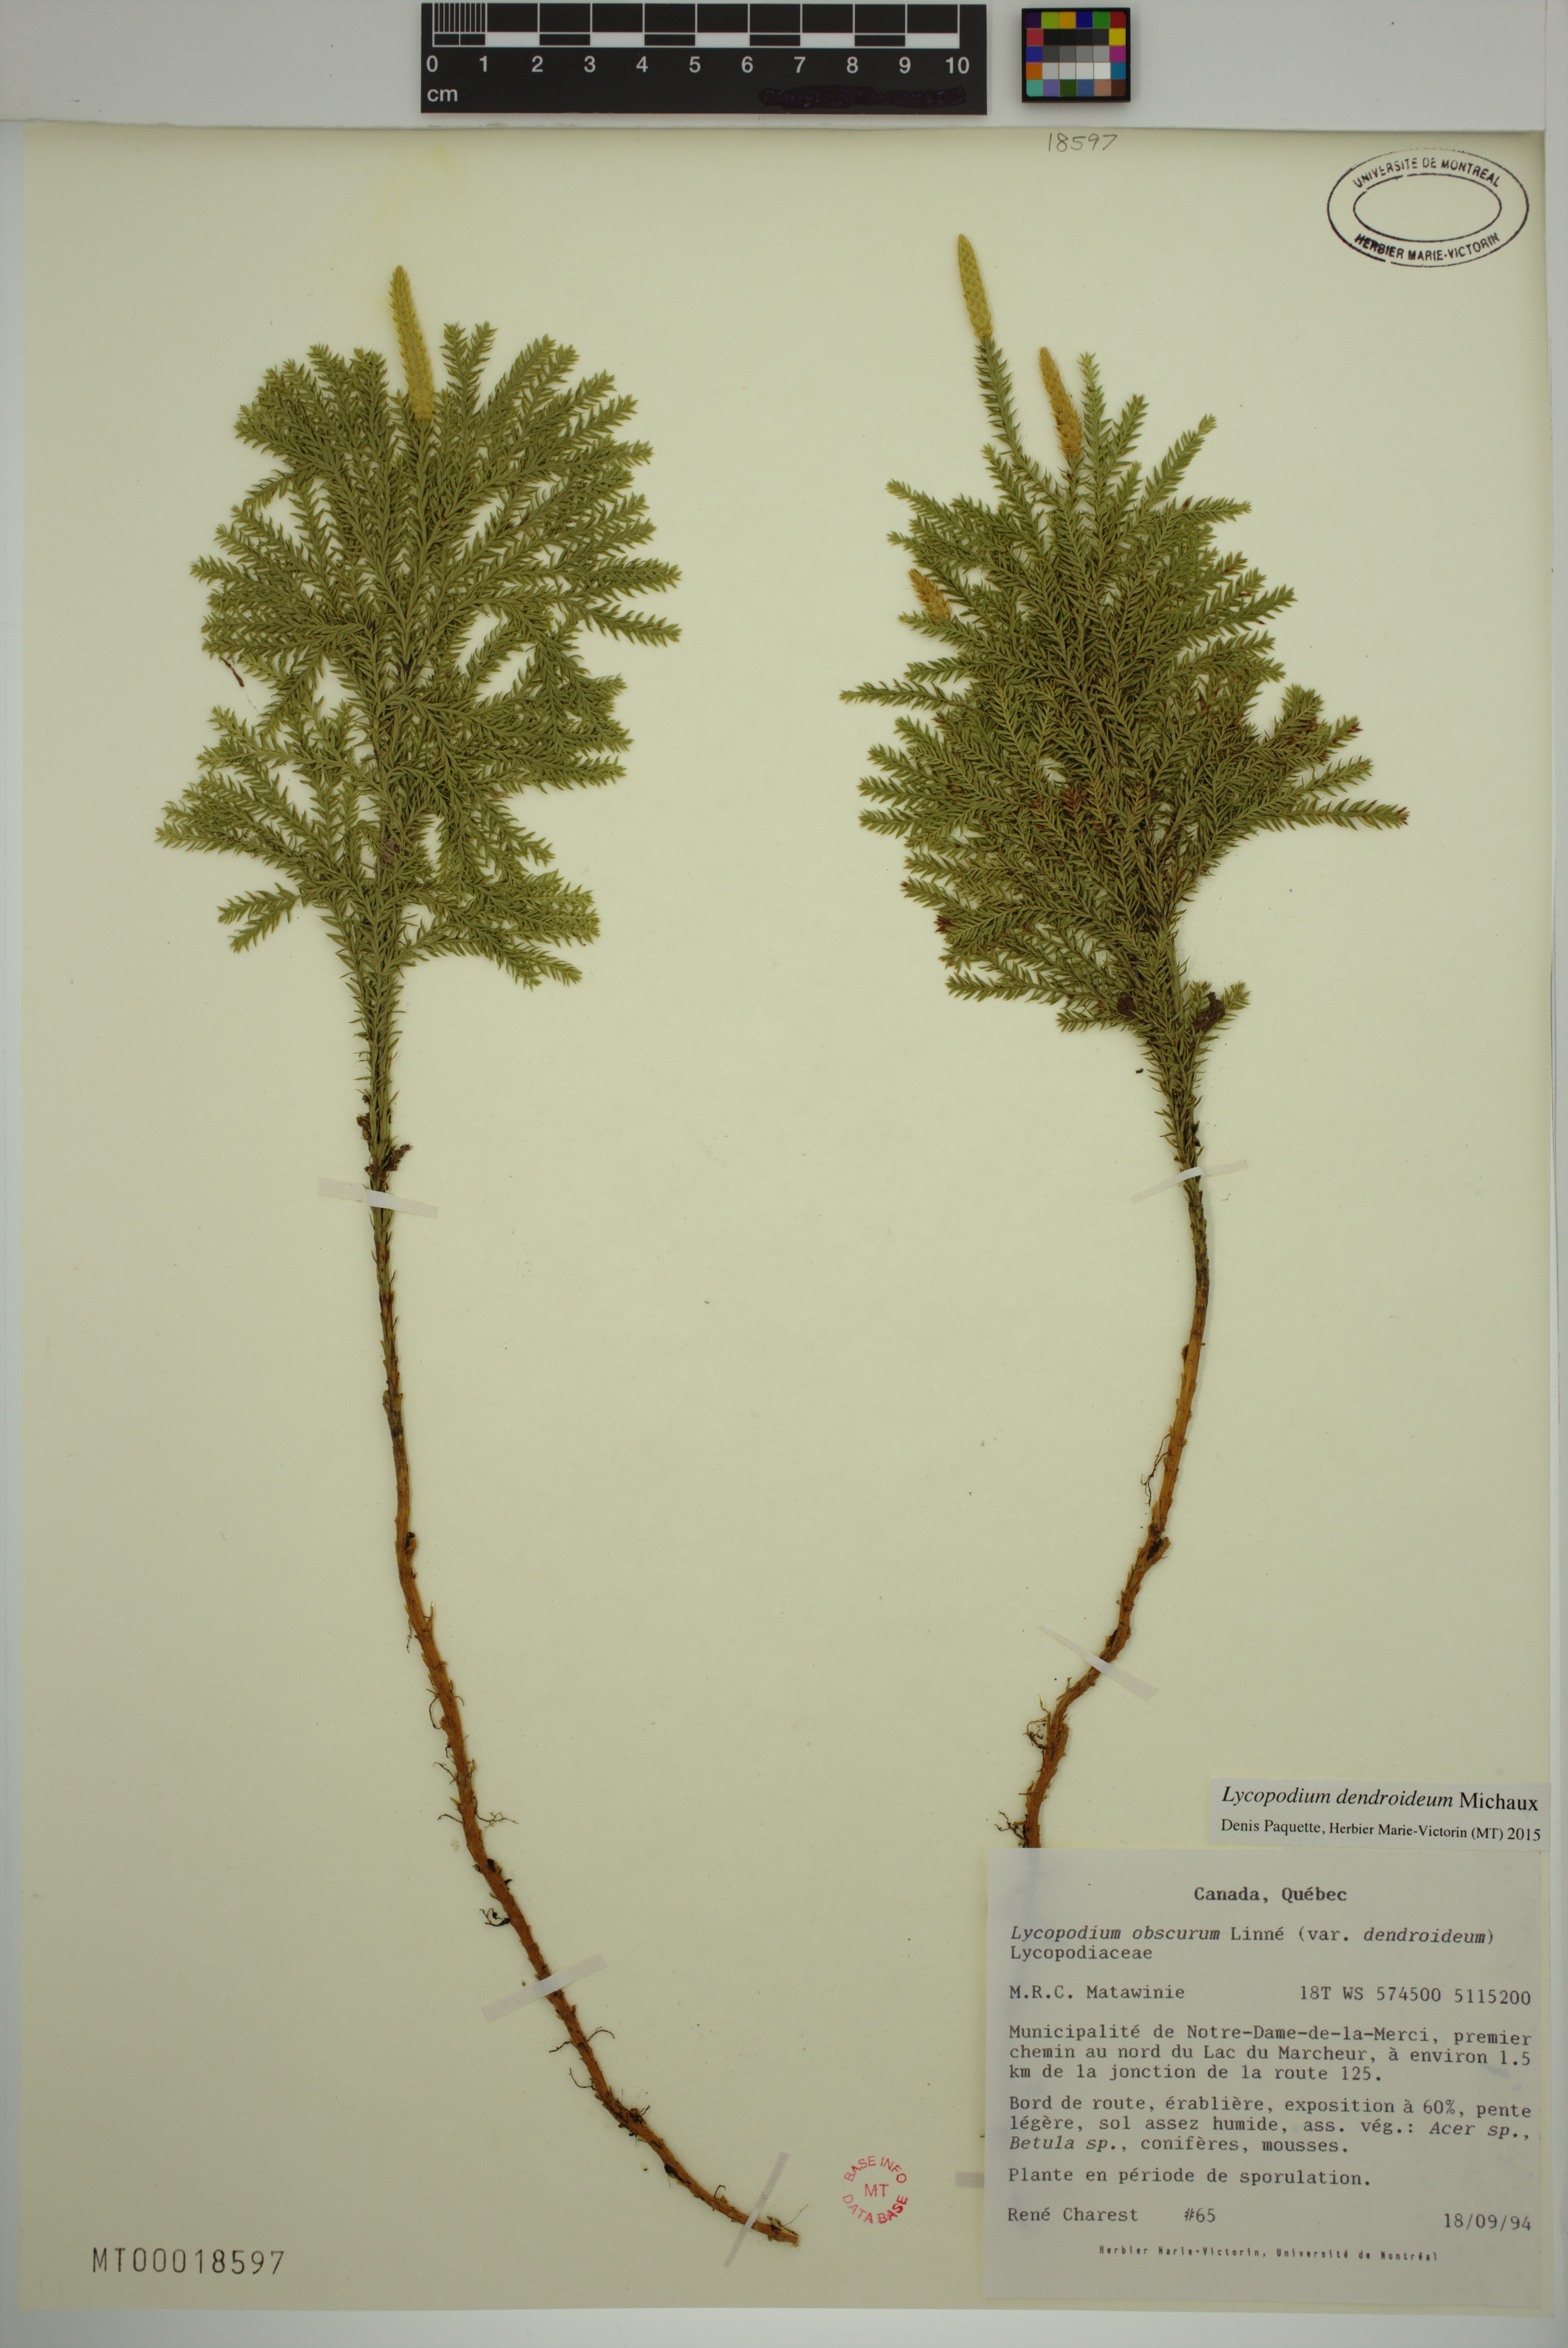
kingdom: Plantae
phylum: Tracheophyta
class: Lycopodiopsida
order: Lycopodiales
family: Lycopodiaceae
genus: Dendrolycopodium
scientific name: Dendrolycopodium dendroideum
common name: Northern tree-clubmoss
